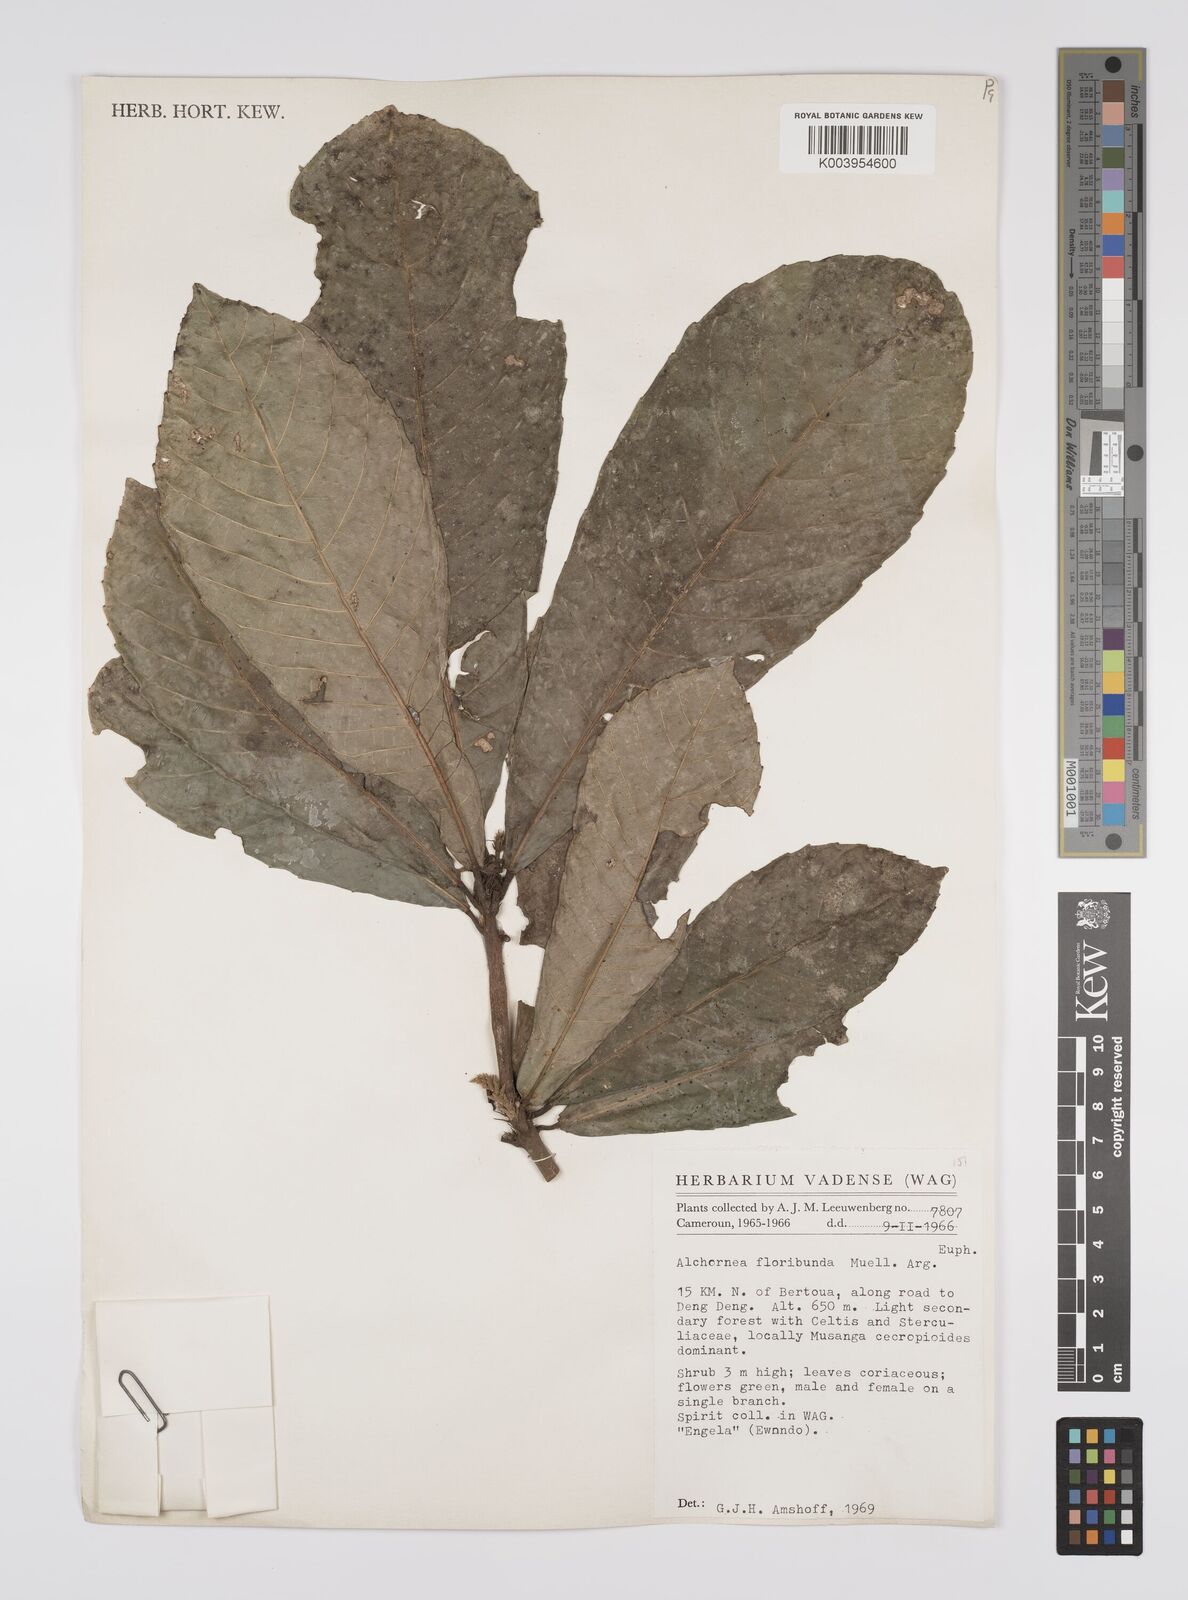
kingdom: Plantae
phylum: Tracheophyta
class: Magnoliopsida
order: Malpighiales
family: Euphorbiaceae
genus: Alchornea
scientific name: Alchornea floribunda
